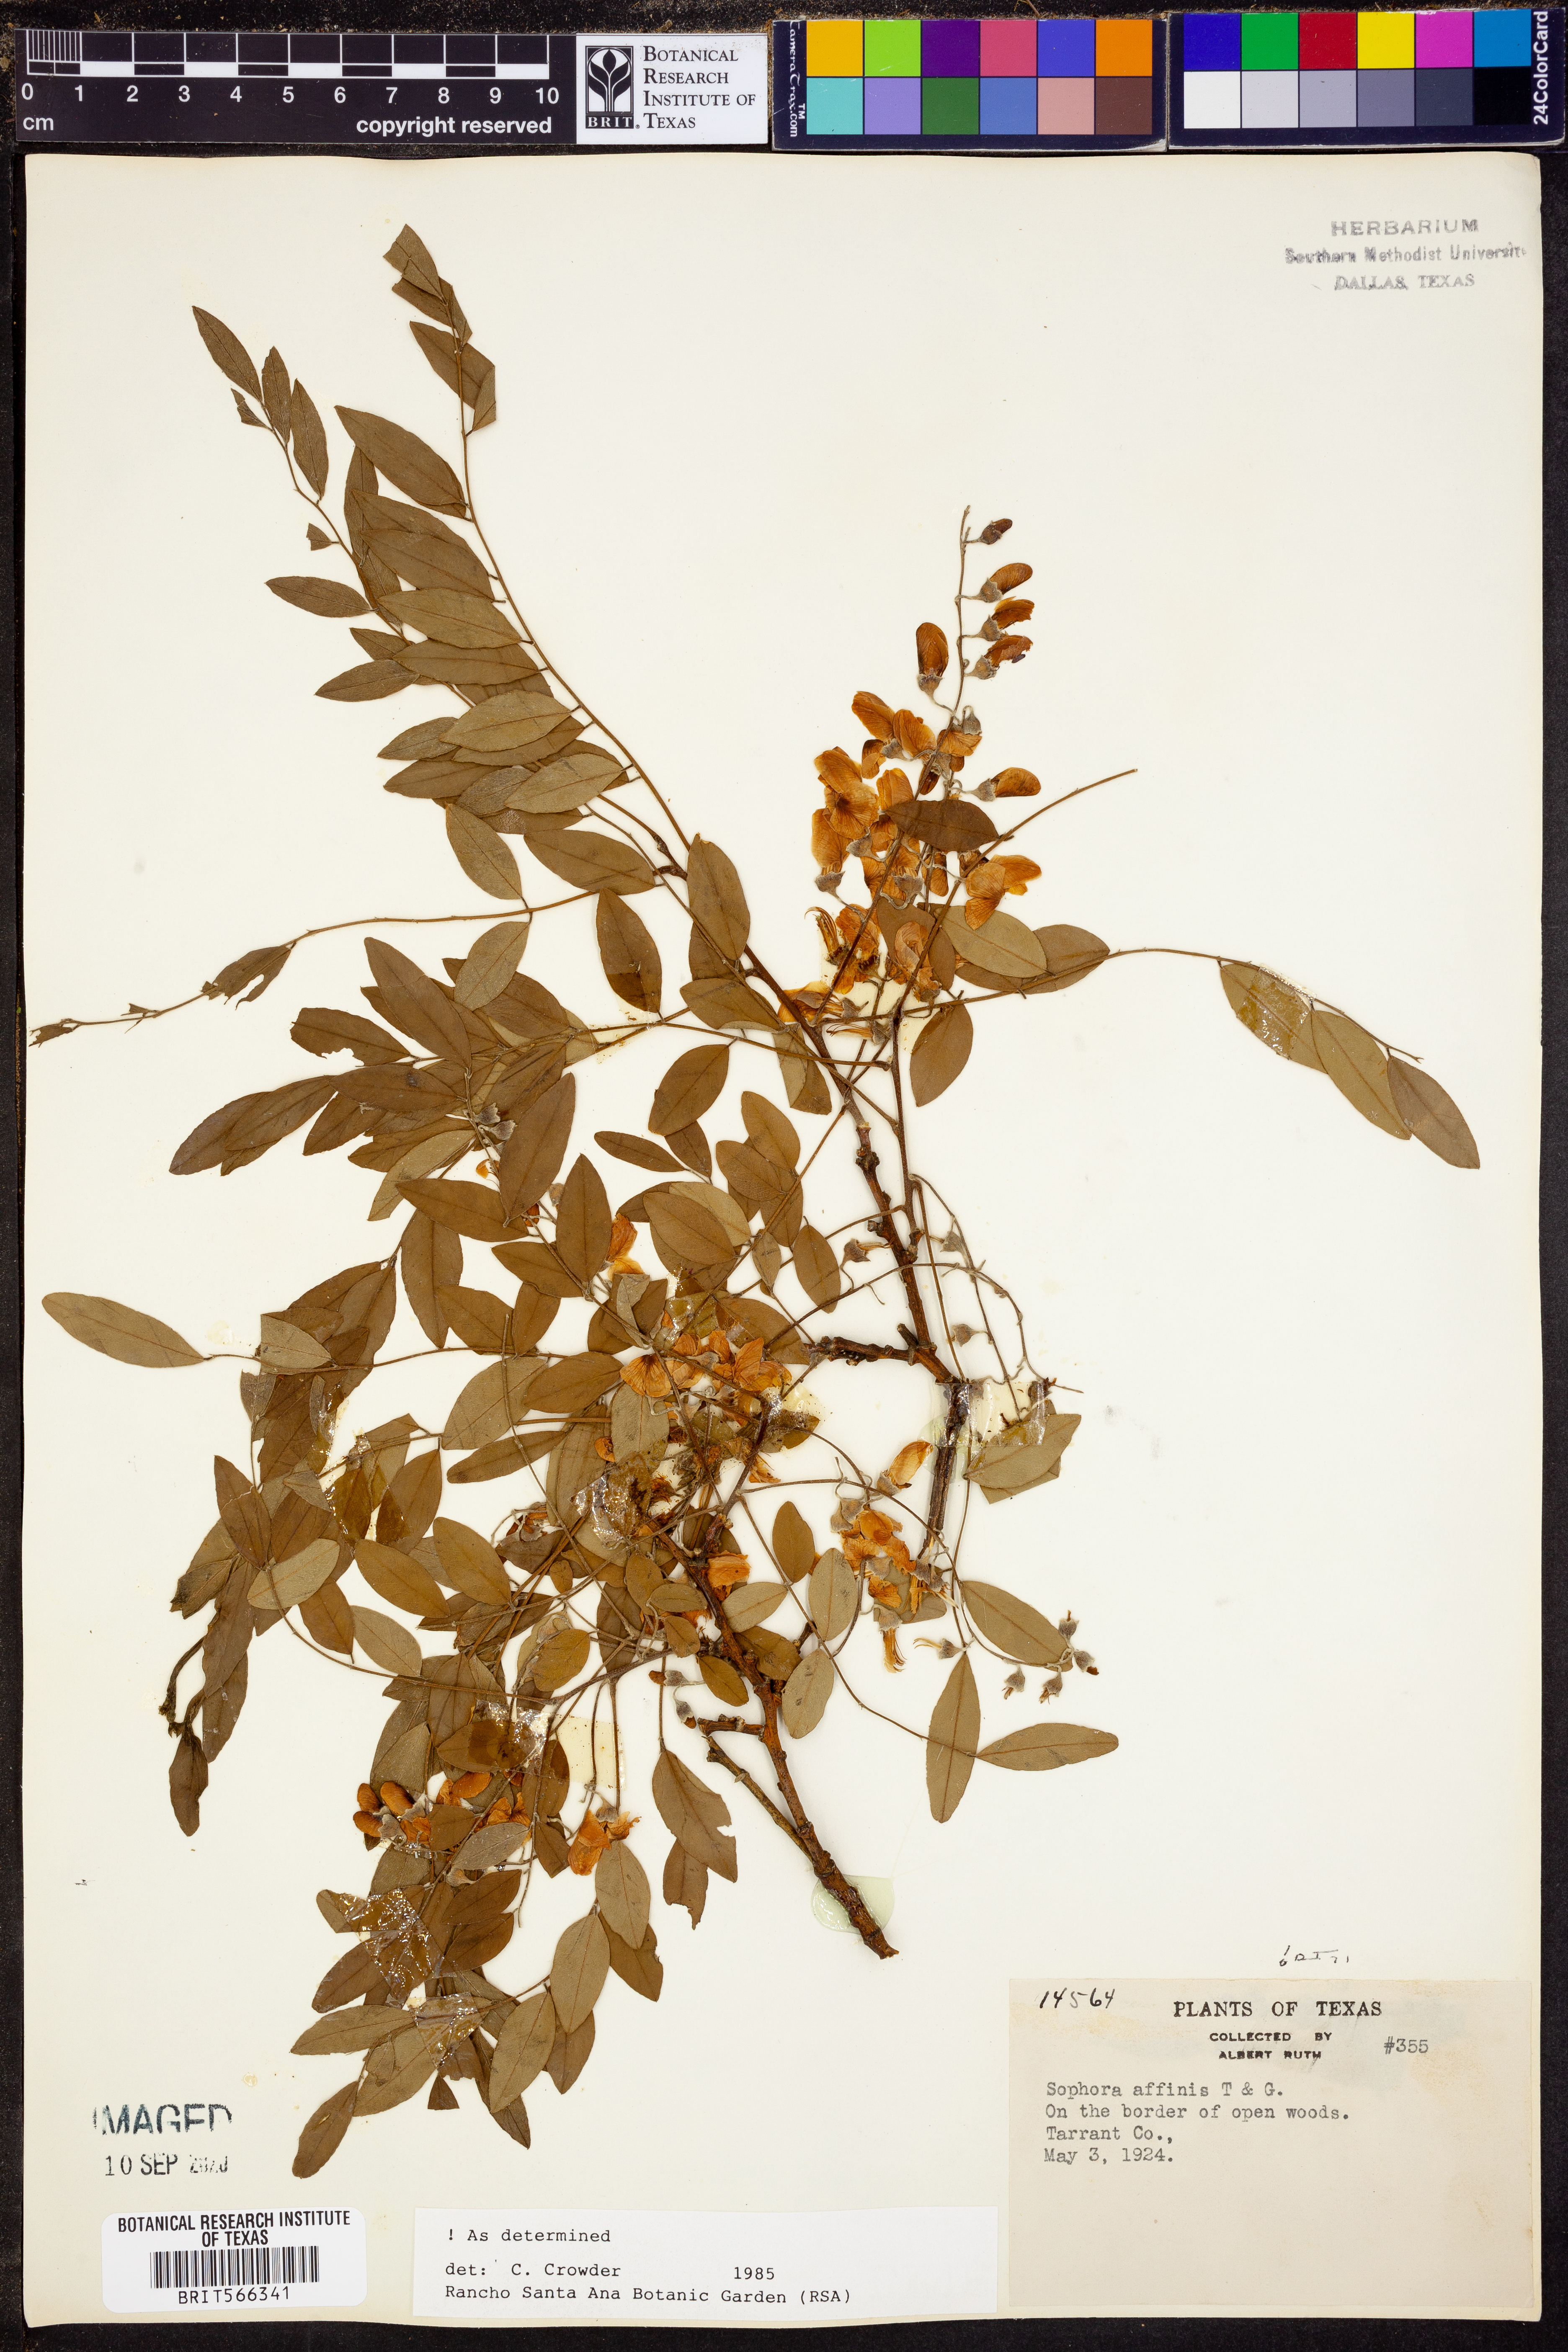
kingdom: Plantae
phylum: Tracheophyta
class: Magnoliopsida
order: Fabales
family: Fabaceae
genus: Styphnolobium
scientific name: Styphnolobium affine
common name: Texas sophora
